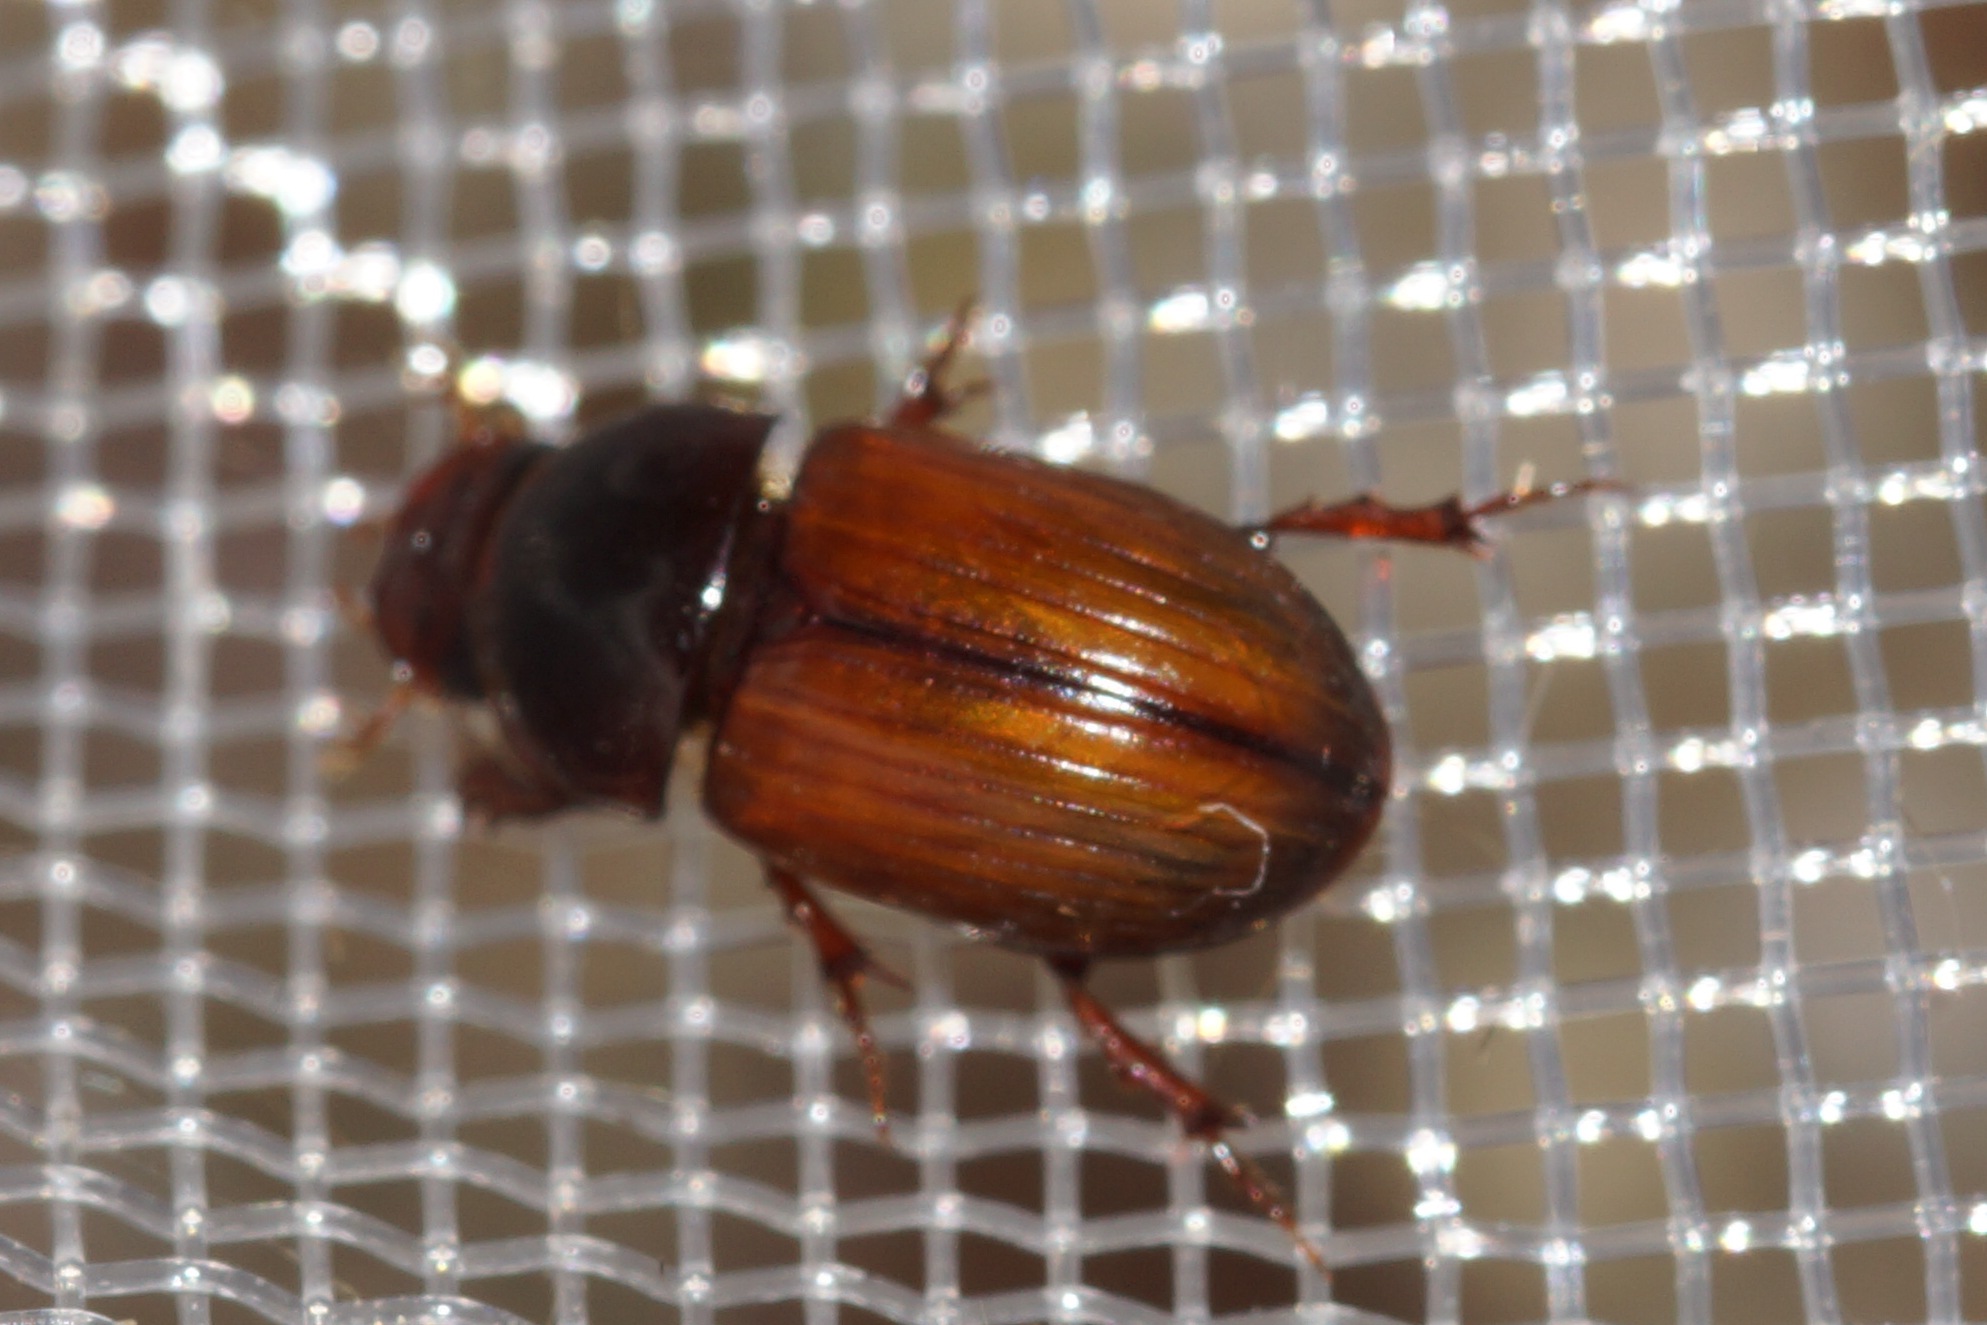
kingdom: Animalia
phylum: Arthropoda
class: Insecta
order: Coleoptera
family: Scarabaeidae
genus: Bodilopsis
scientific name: Bodilopsis rufus
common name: Mahognibrun møgbille
